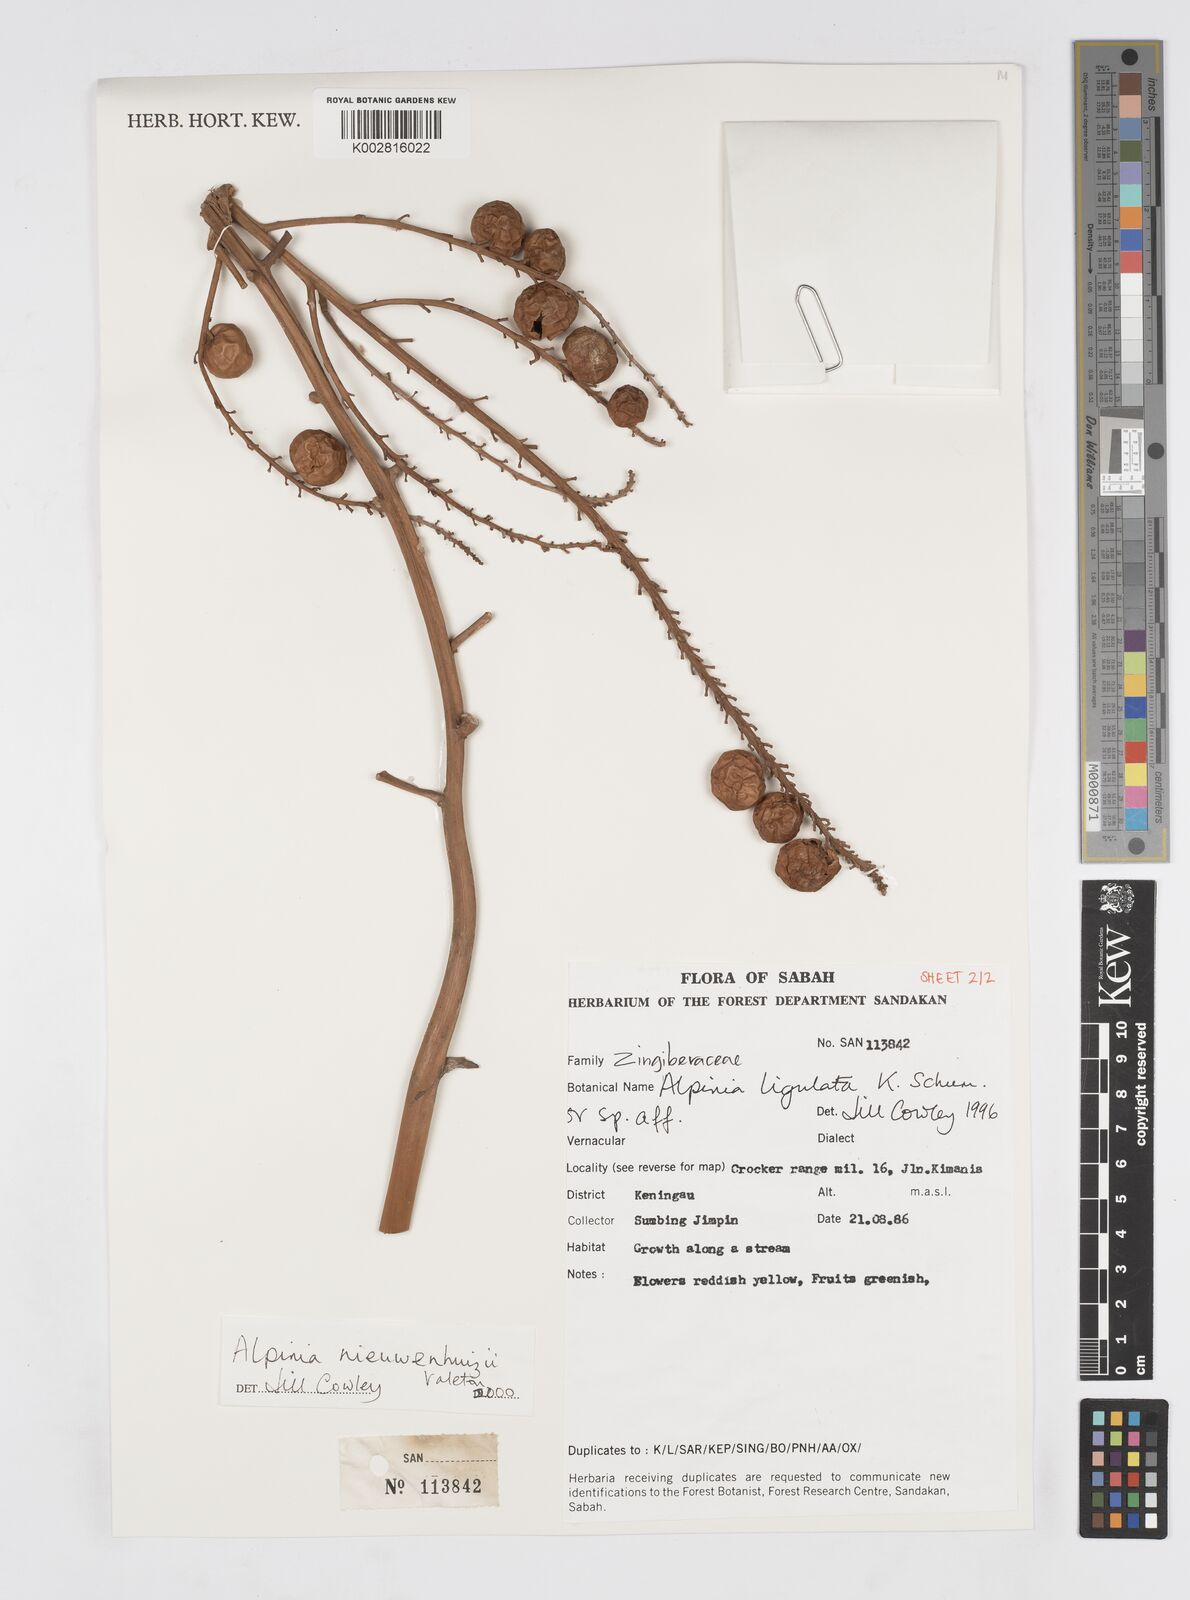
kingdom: Plantae
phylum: Tracheophyta
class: Liliopsida
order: Zingiberales
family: Zingiberaceae
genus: Alpinia
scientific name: Alpinia nieuwenhuizii
